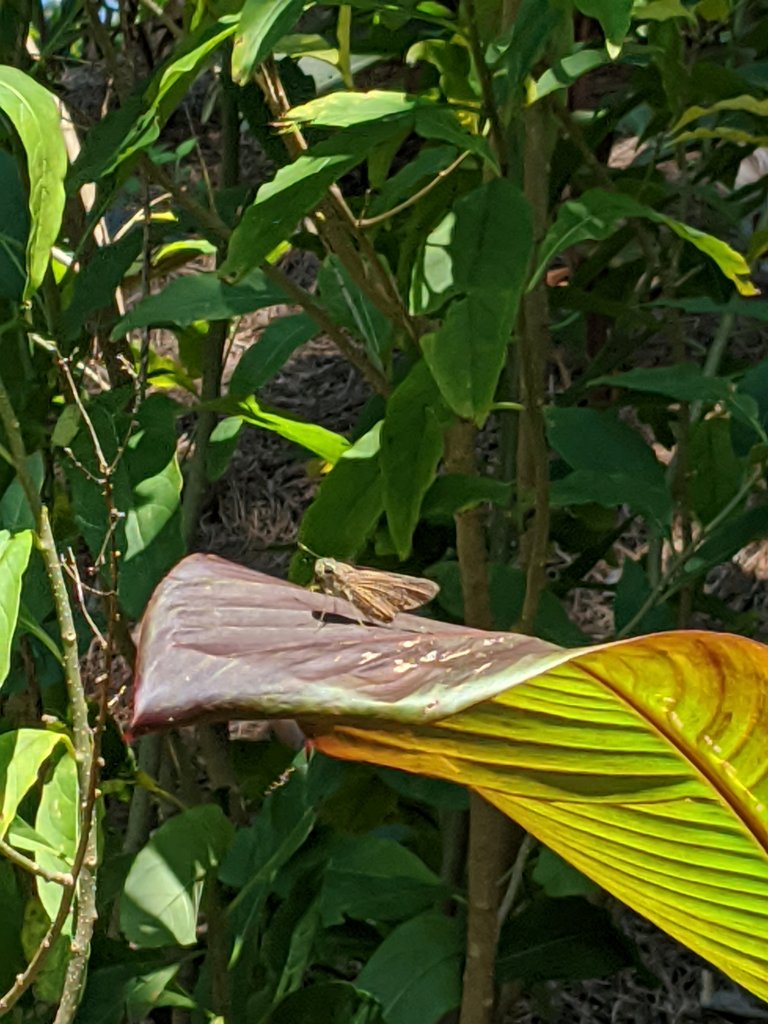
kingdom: Animalia
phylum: Arthropoda
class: Insecta
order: Lepidoptera
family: Hesperiidae
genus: Calpodes
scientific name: Calpodes ethlius
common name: Brazilian Skipper
